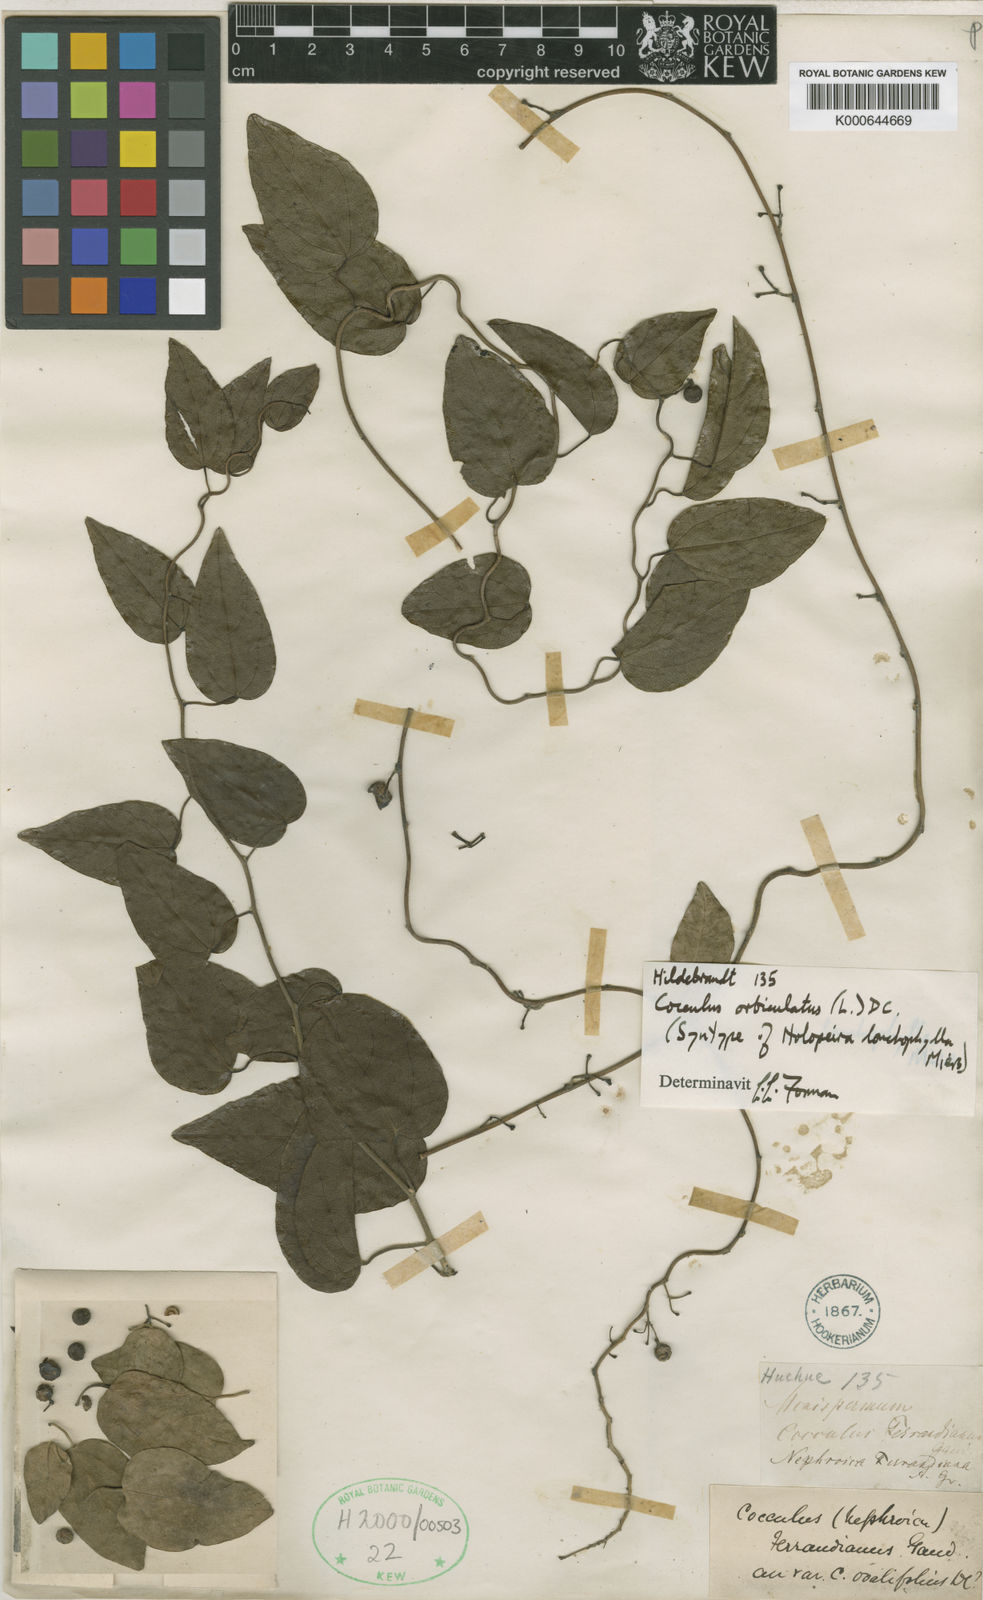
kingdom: Plantae
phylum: Tracheophyta
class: Magnoliopsida
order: Ranunculales
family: Menispermaceae
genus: Cocculus
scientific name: Cocculus orbiculatus
